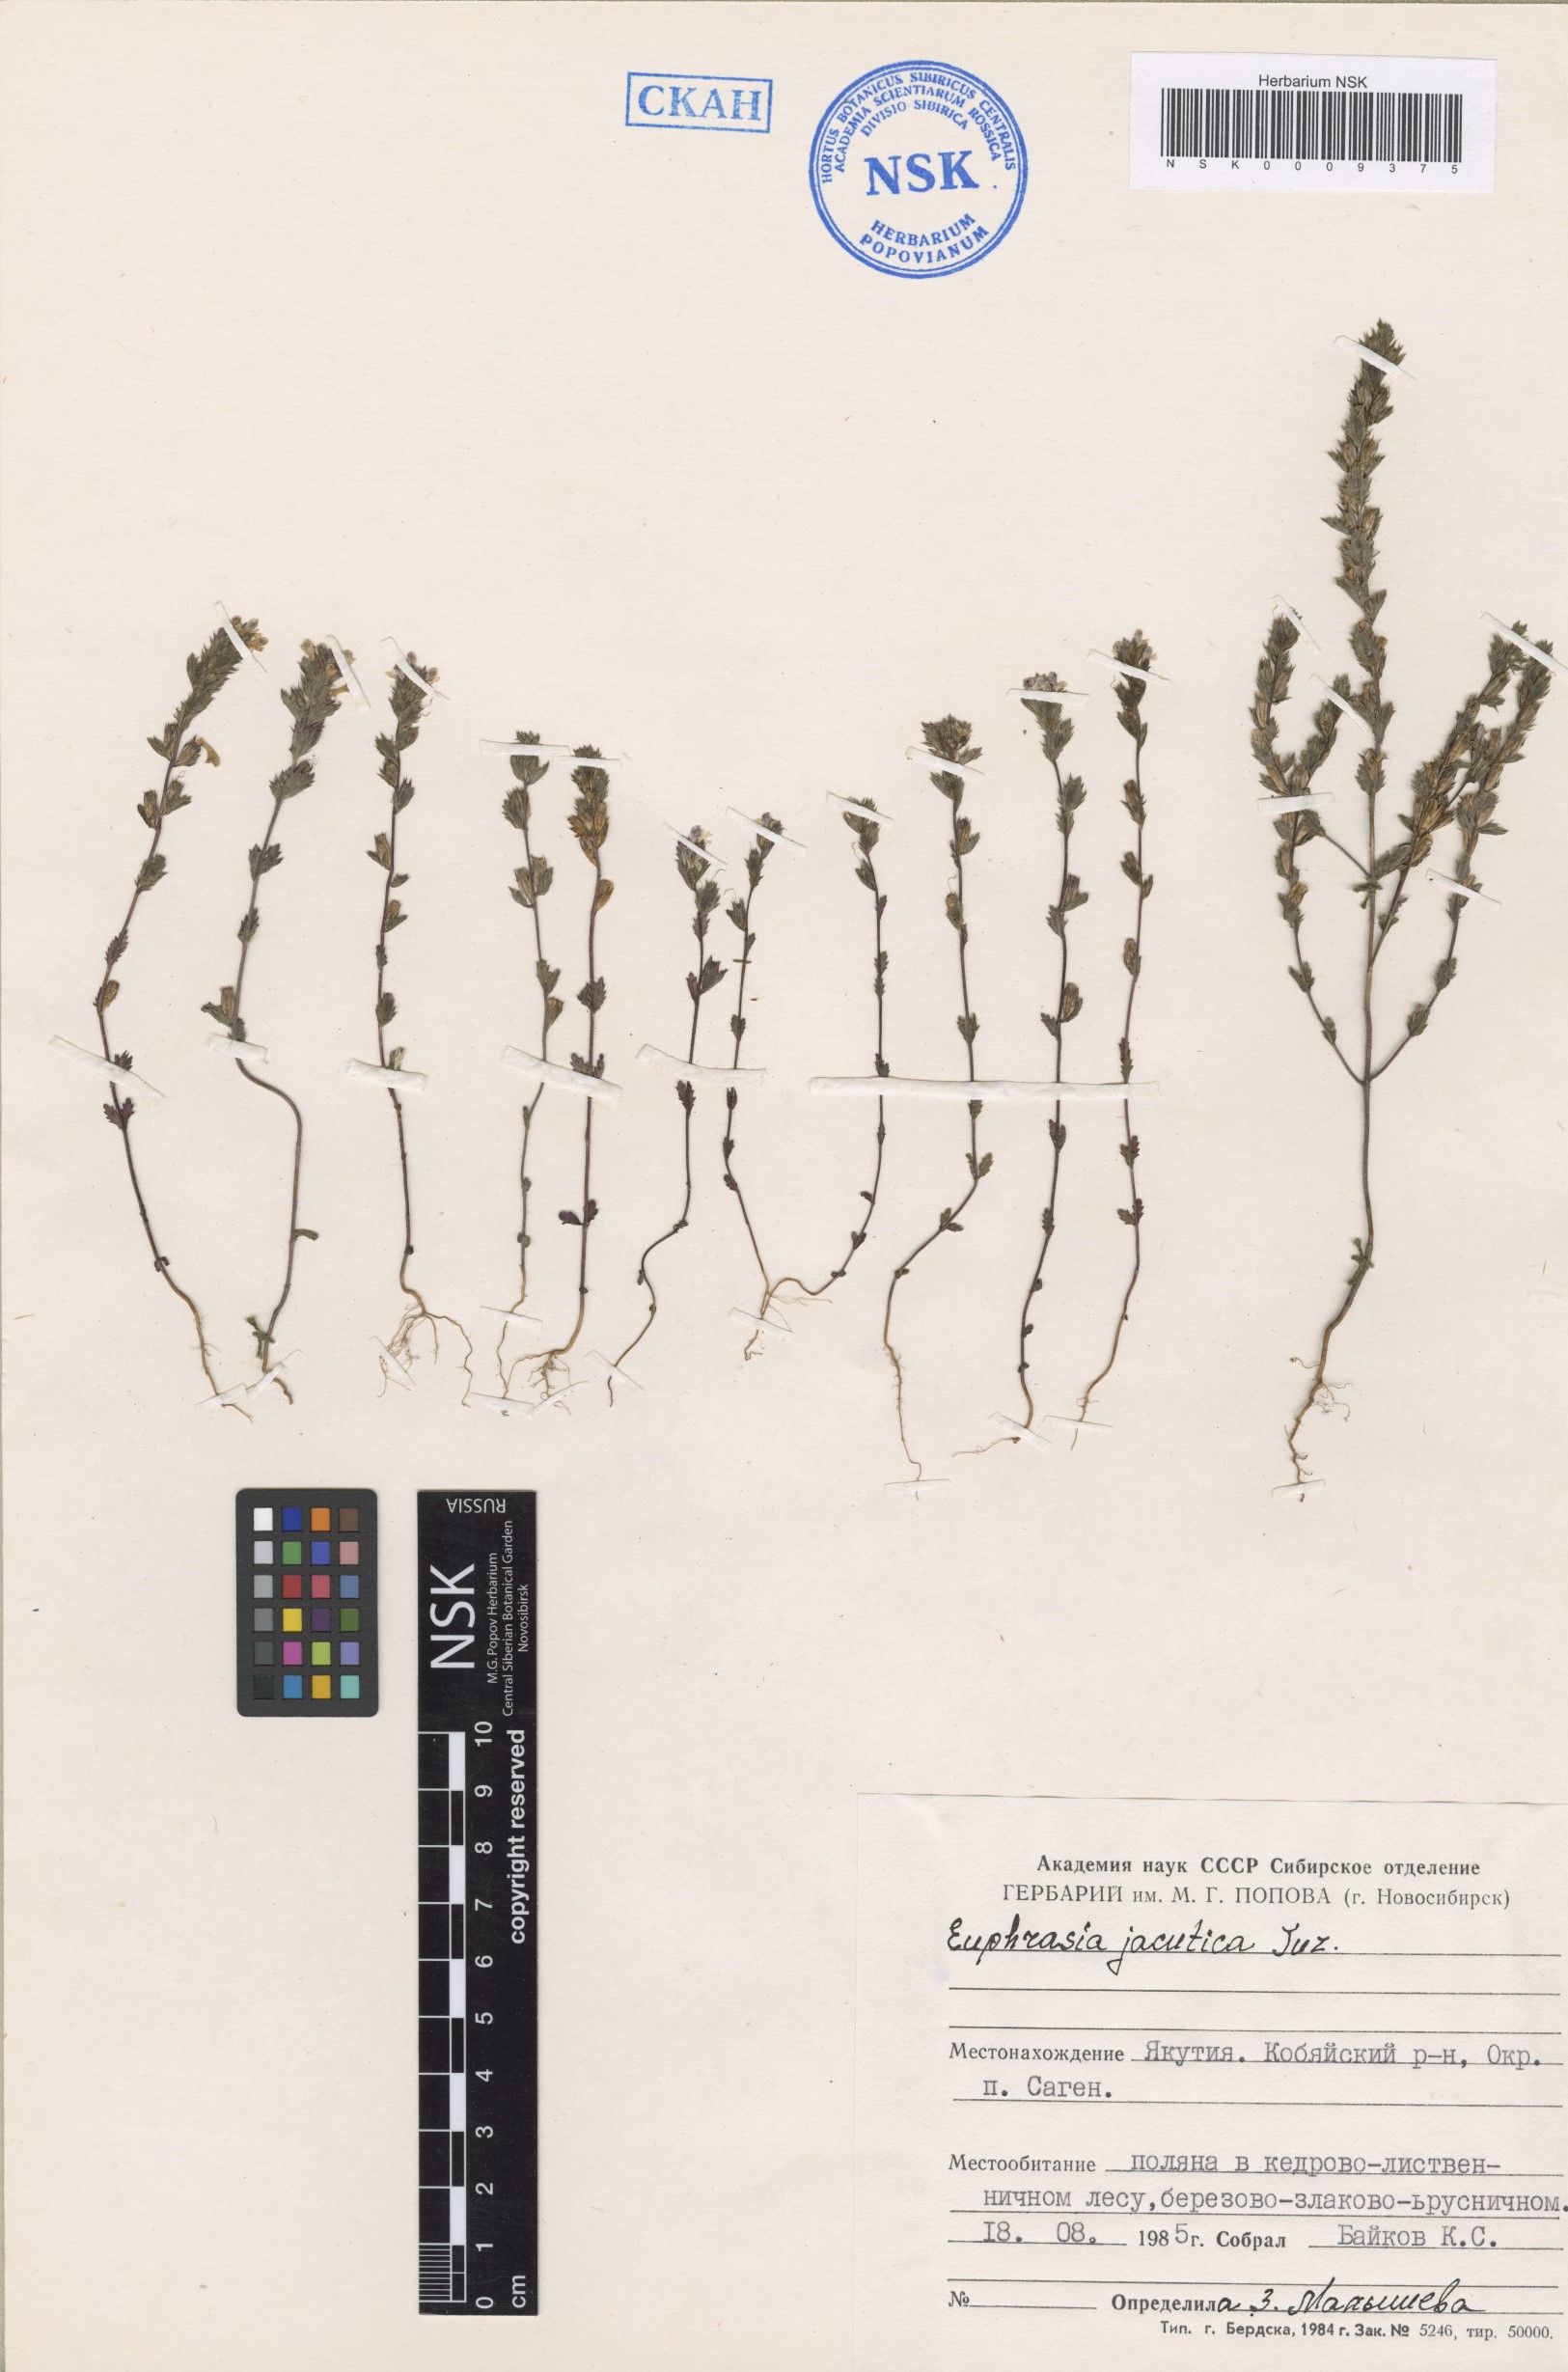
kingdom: Plantae
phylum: Tracheophyta
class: Magnoliopsida
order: Lamiales
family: Orobanchaceae
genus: Euphrasia
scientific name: Euphrasia jacutica
